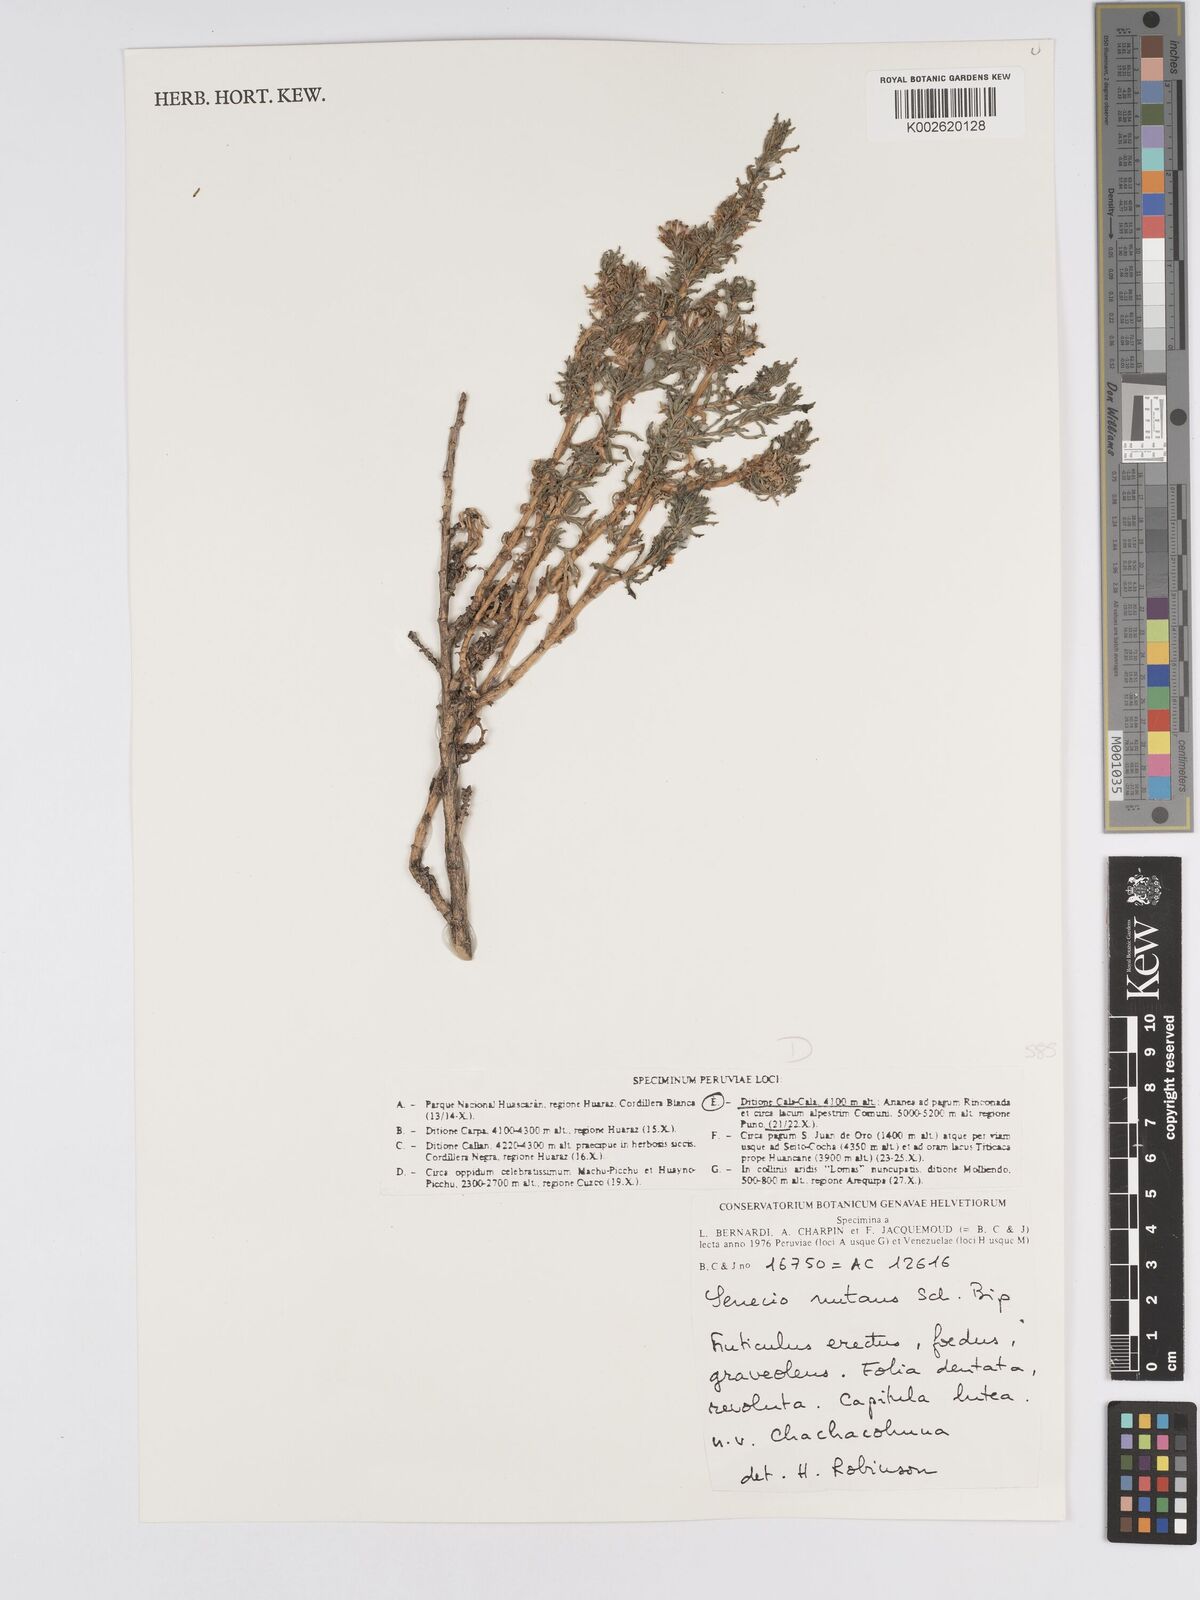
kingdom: Plantae
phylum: Tracheophyta
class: Magnoliopsida
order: Asterales
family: Asteraceae
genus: Senecio
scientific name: Senecio nutans
